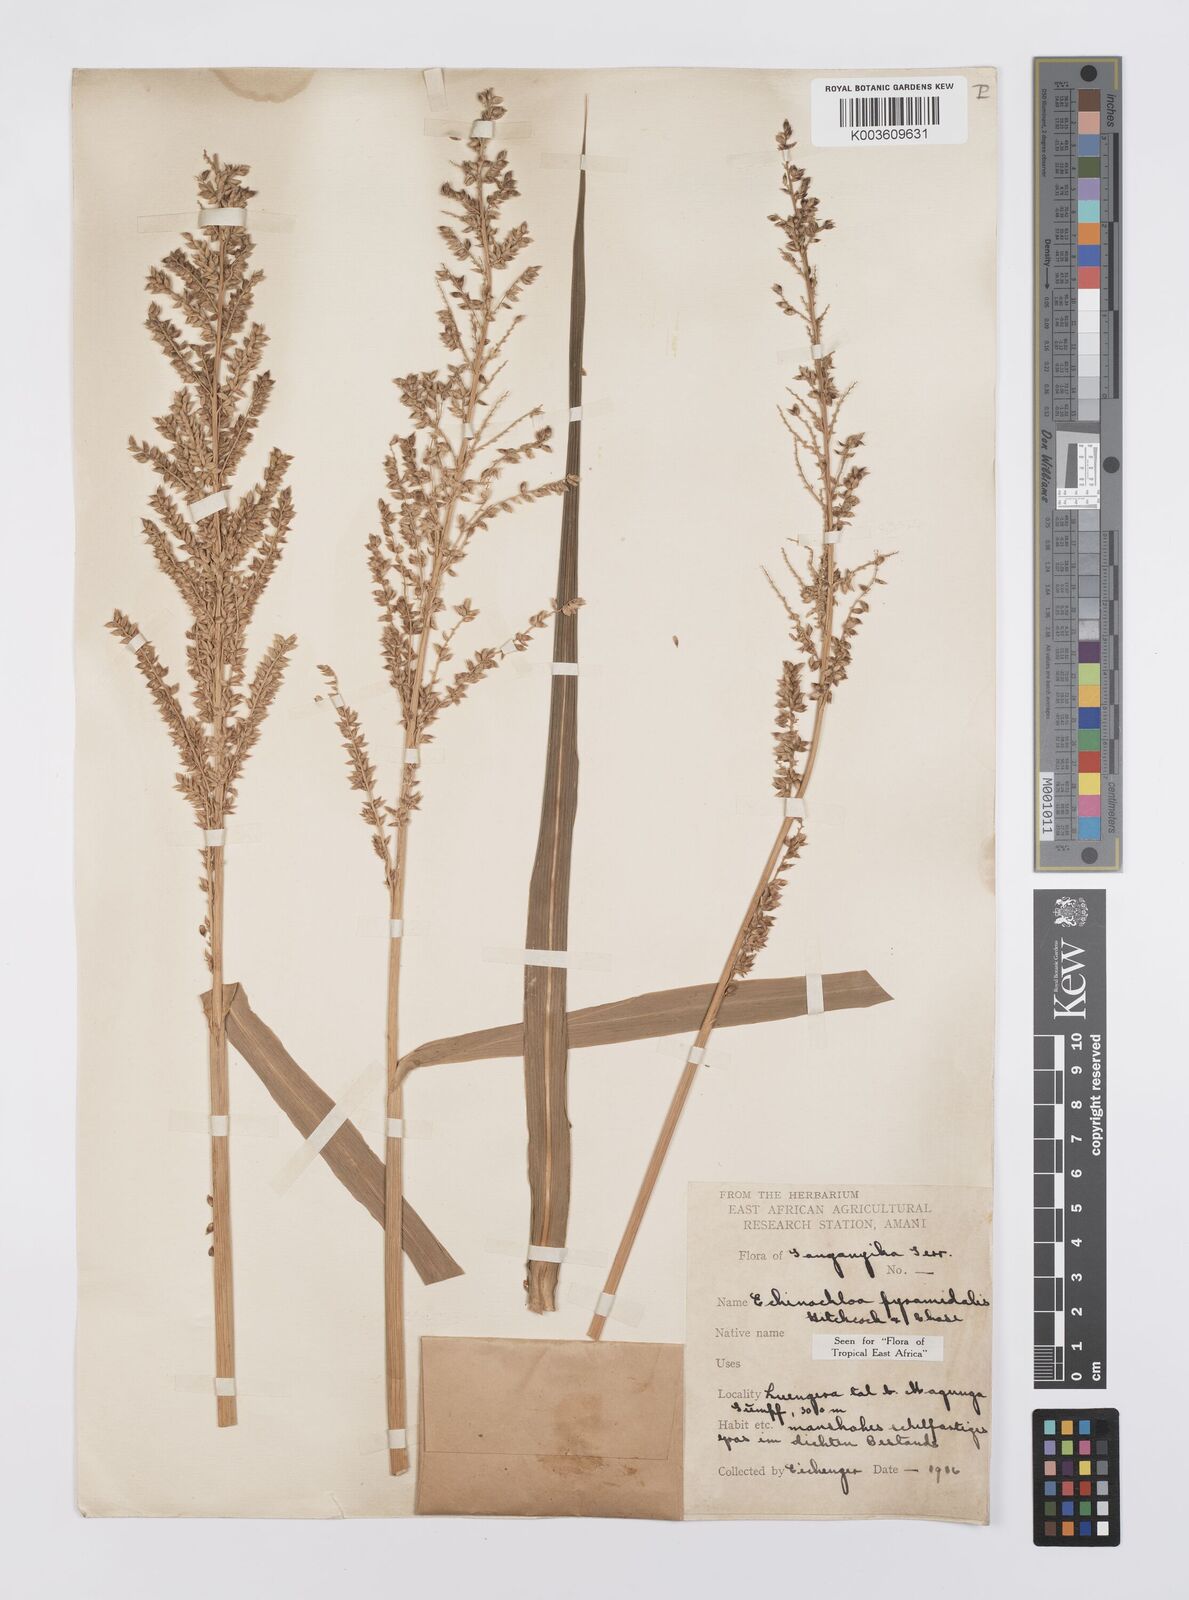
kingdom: Plantae
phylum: Tracheophyta
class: Liliopsida
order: Poales
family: Poaceae
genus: Echinochloa
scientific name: Echinochloa pyramidalis
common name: Antelope grass
